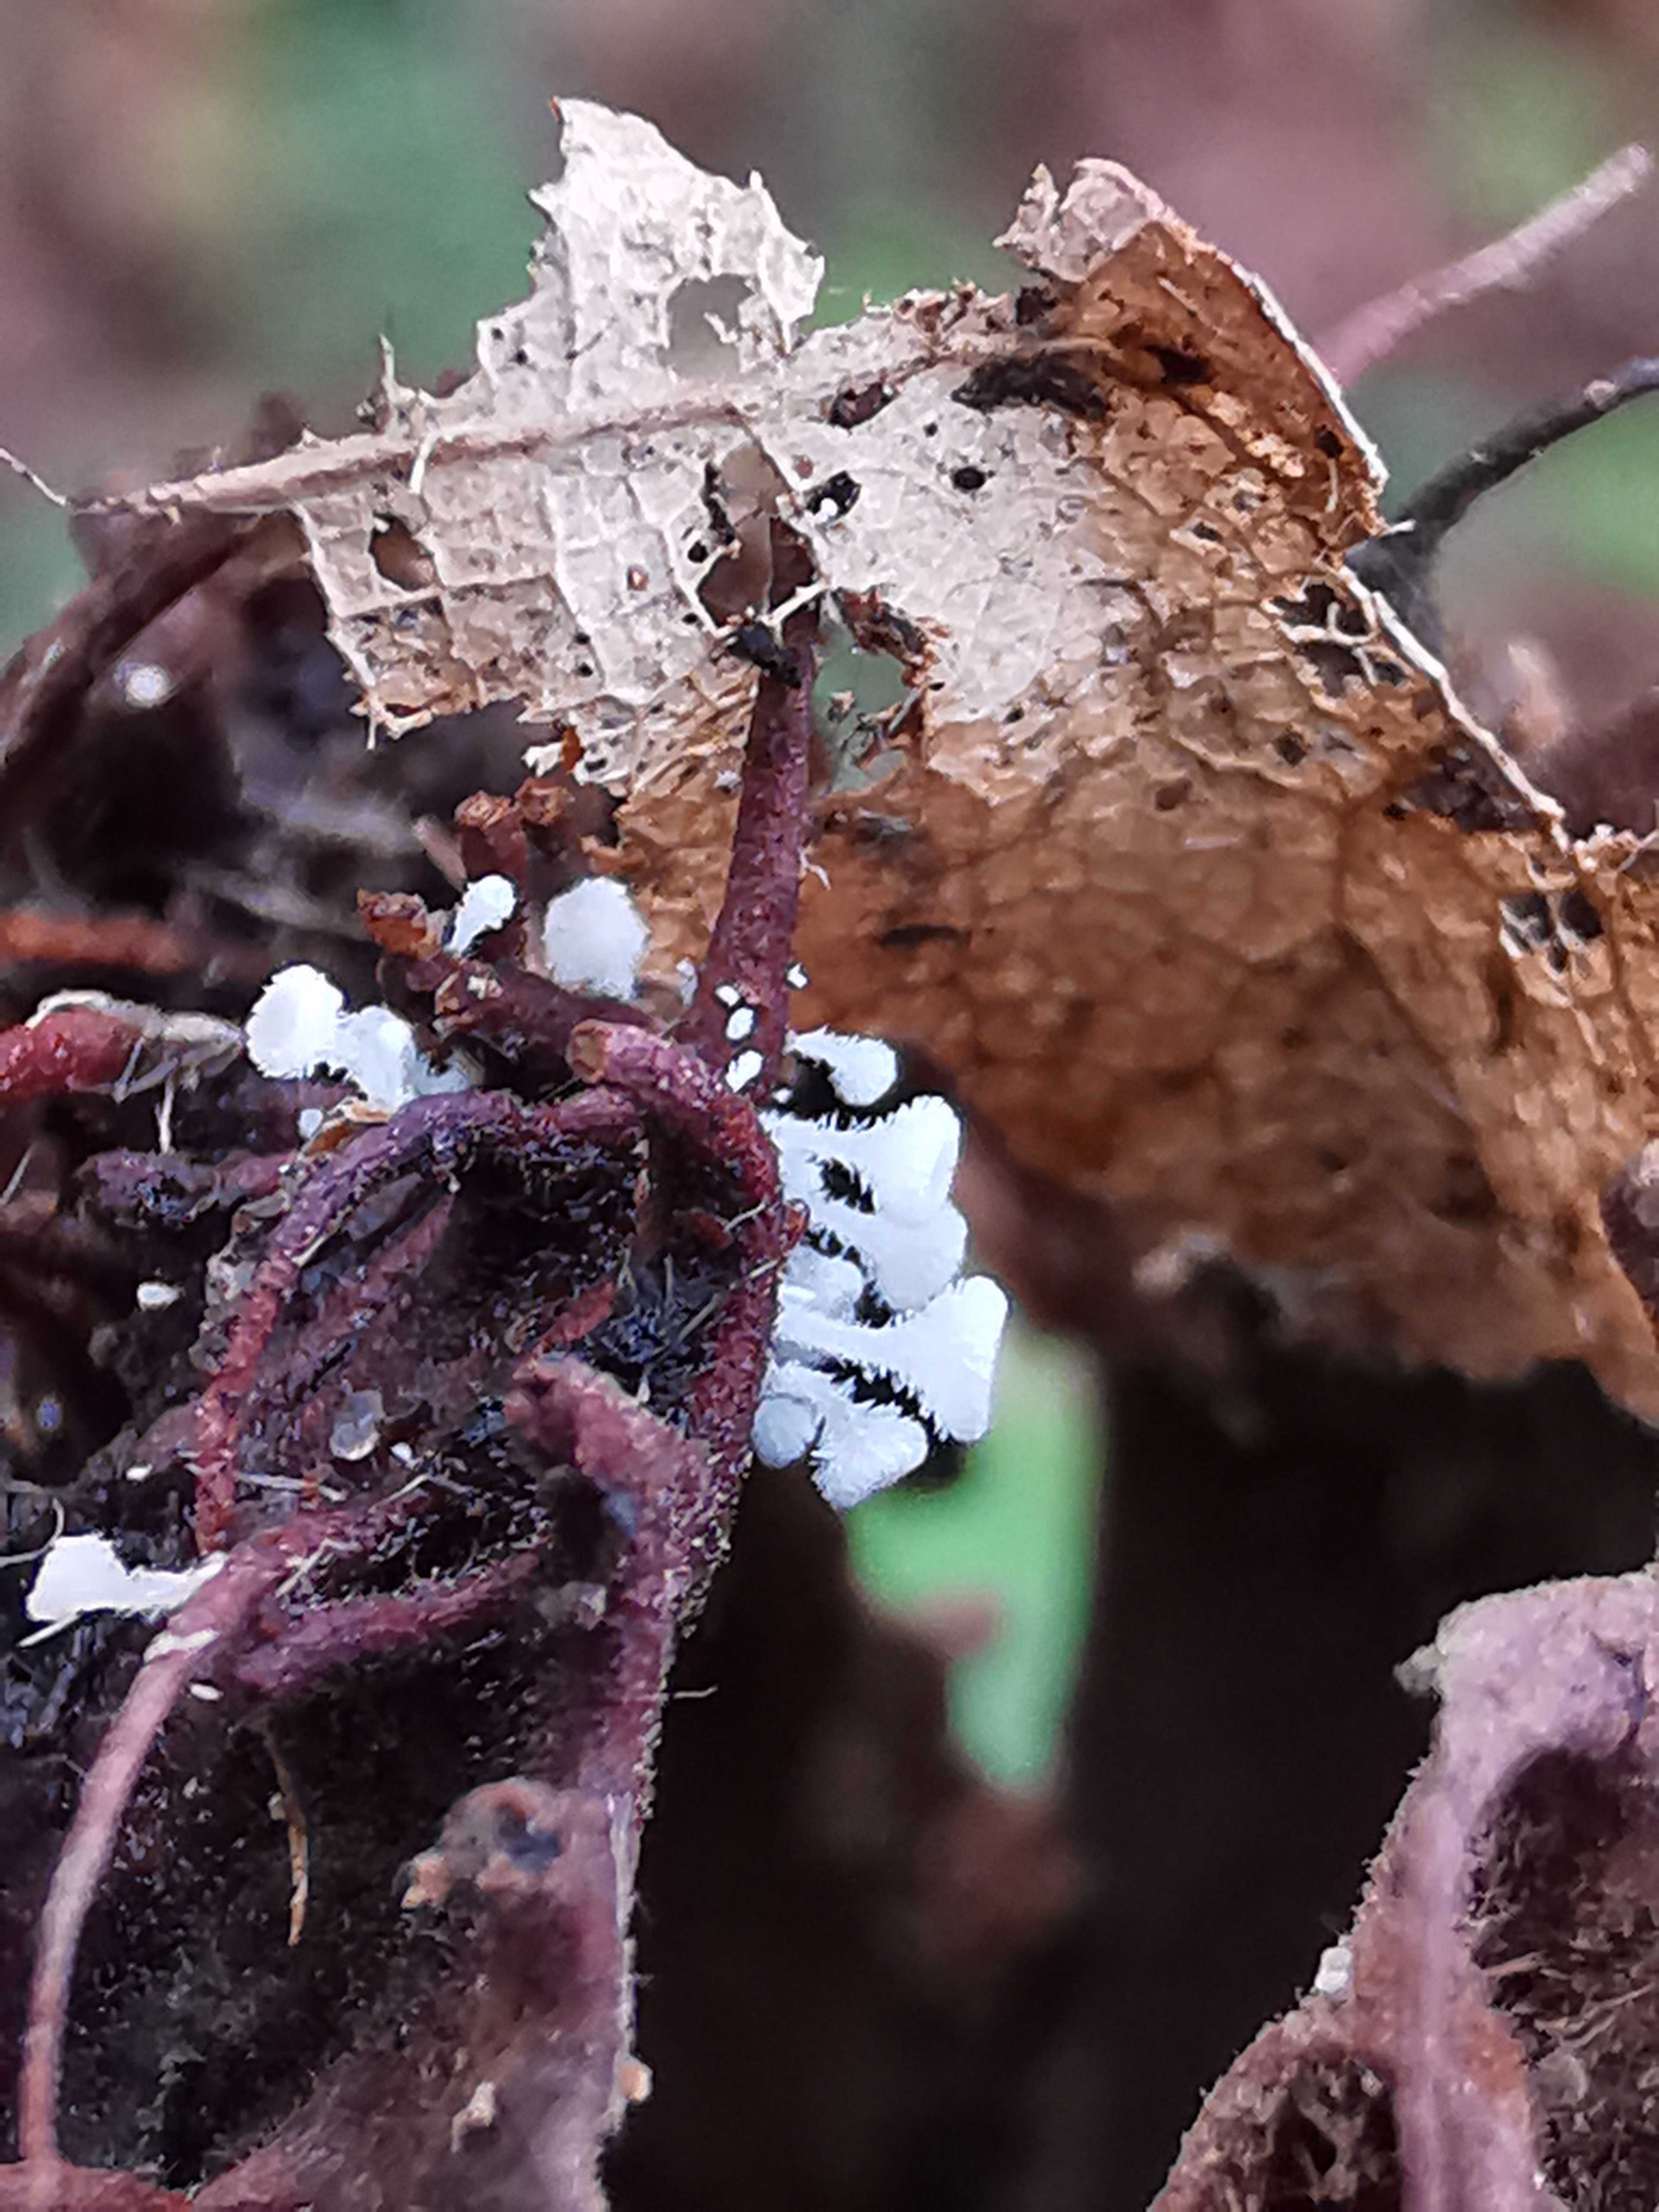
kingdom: Fungi
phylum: Ascomycota
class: Leotiomycetes
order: Helotiales
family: Lachnaceae
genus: Lachnum
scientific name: Lachnum virgineum
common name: jomfru-frynseskive
